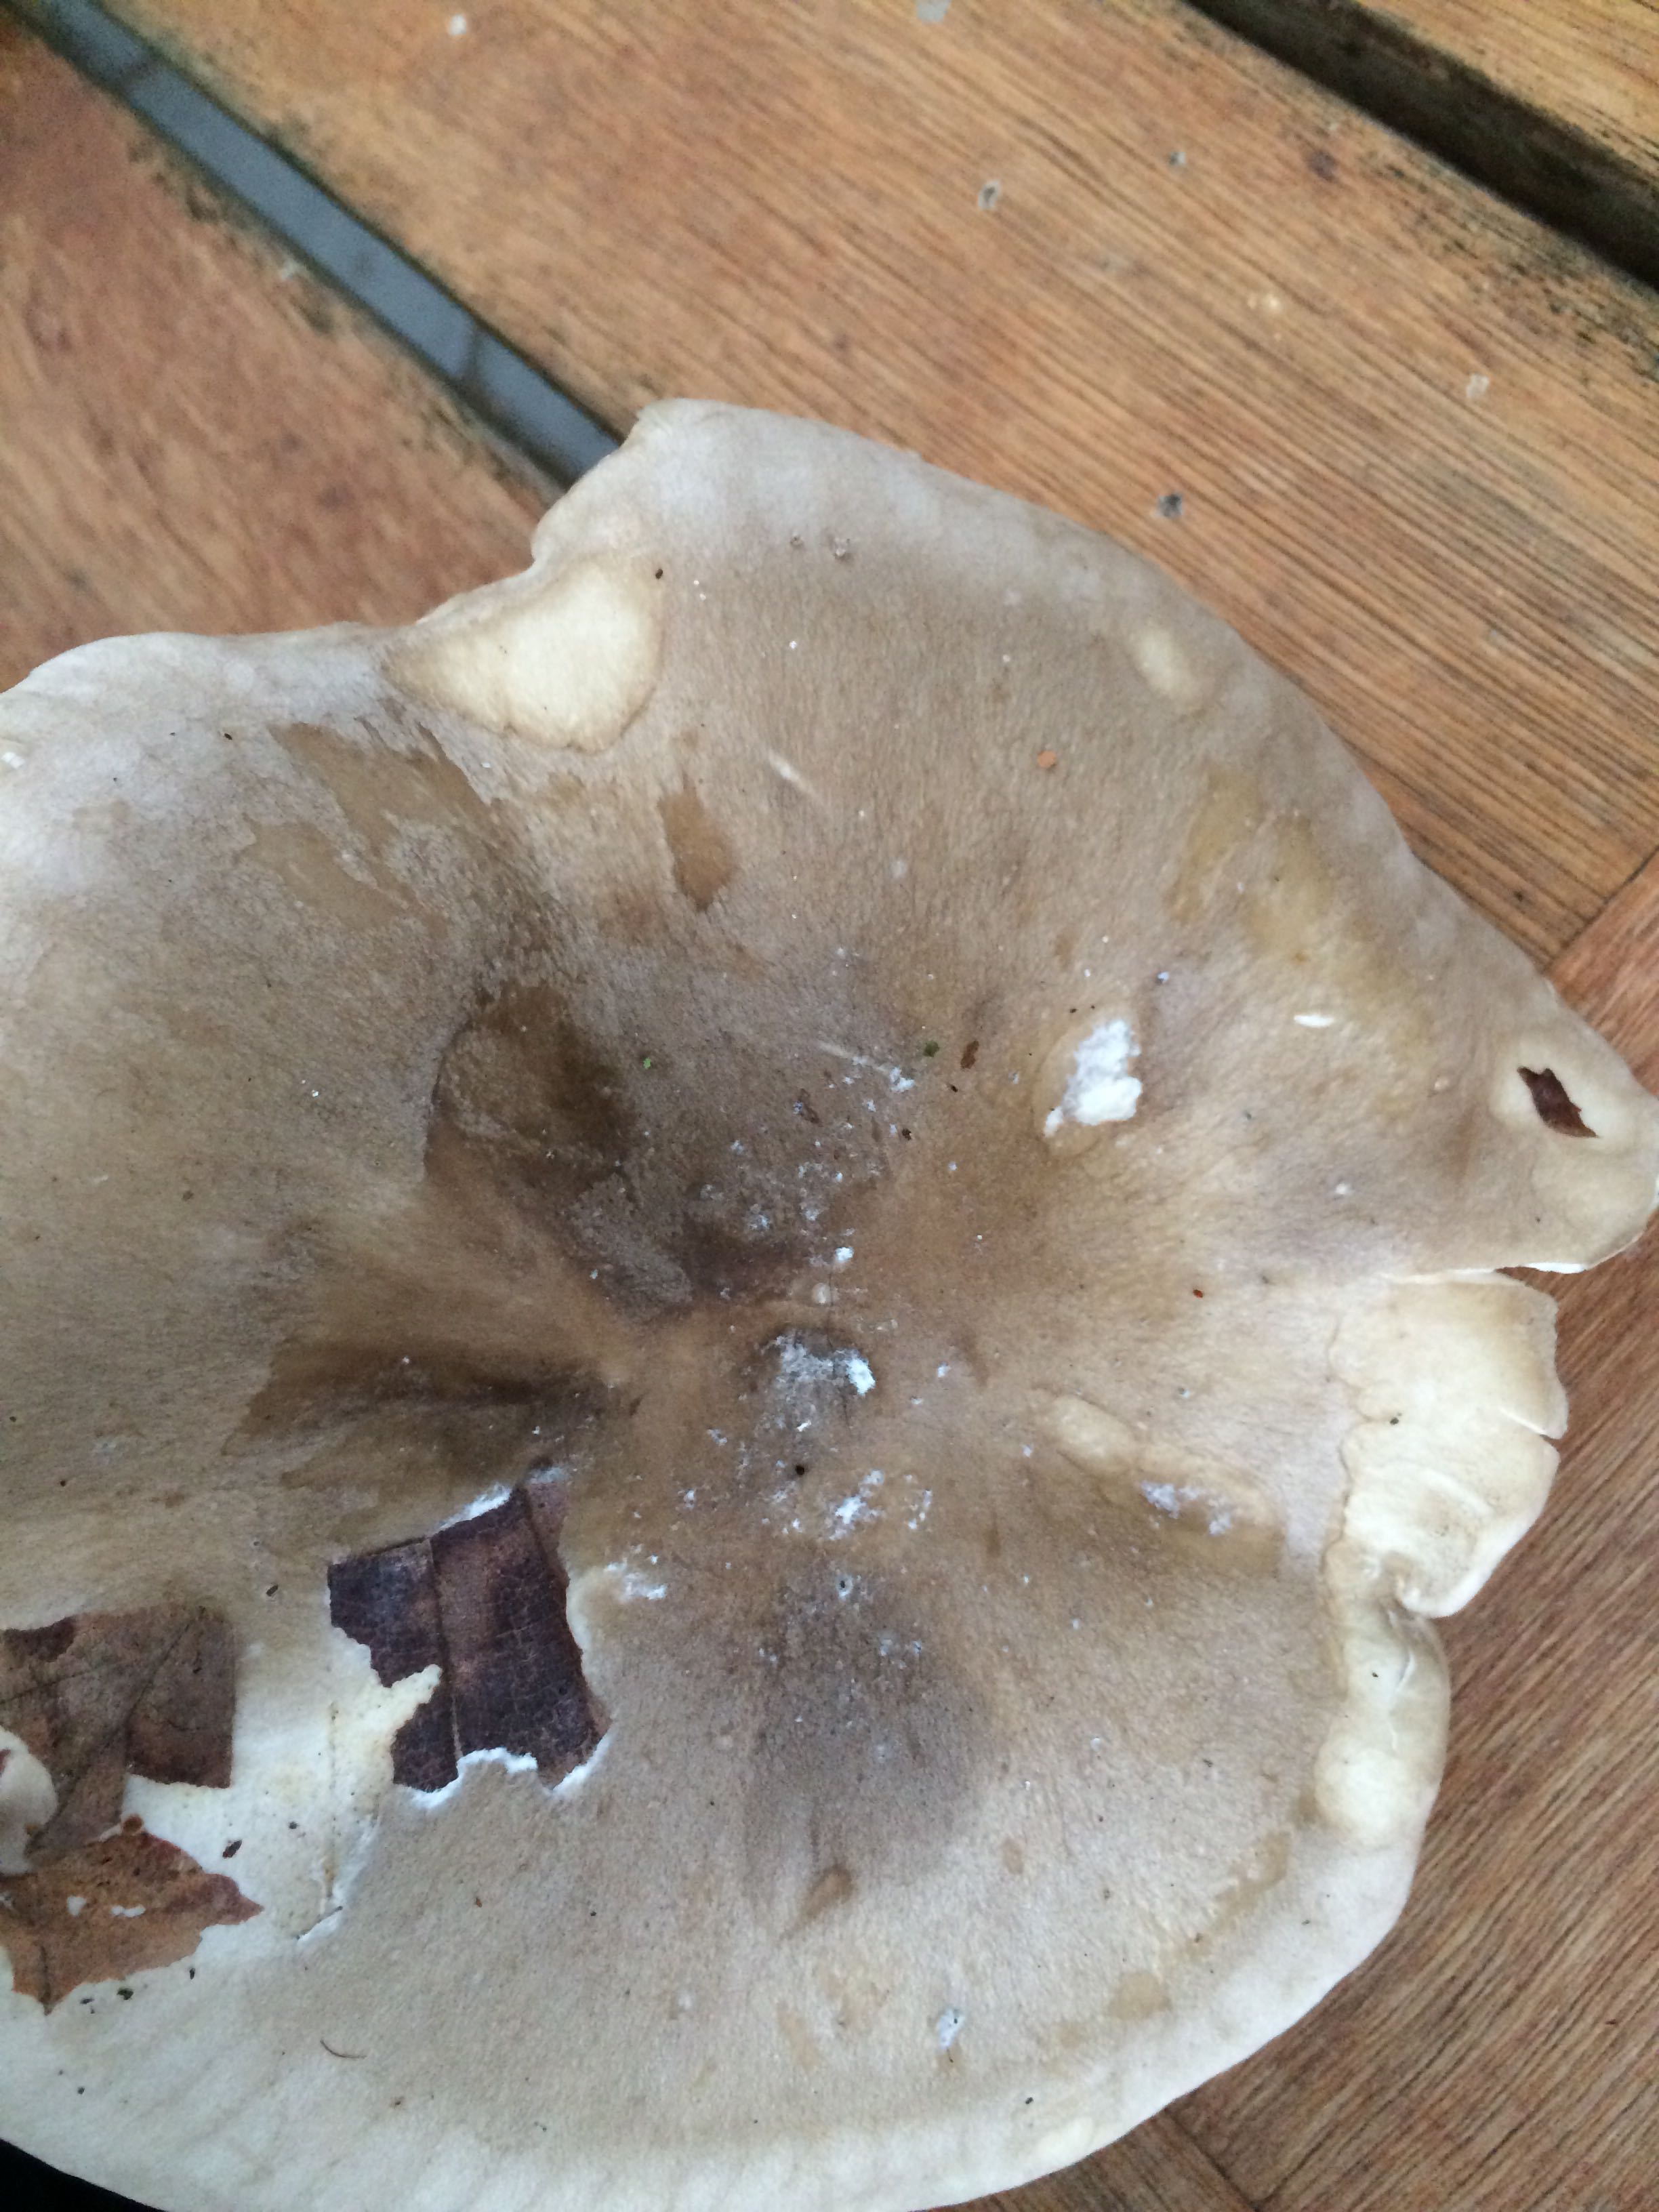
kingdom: Fungi
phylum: Basidiomycota
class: Agaricomycetes
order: Agaricales
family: Tricholomataceae
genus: Clitocybe
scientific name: Clitocybe nebularis
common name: tåge-tragthat
